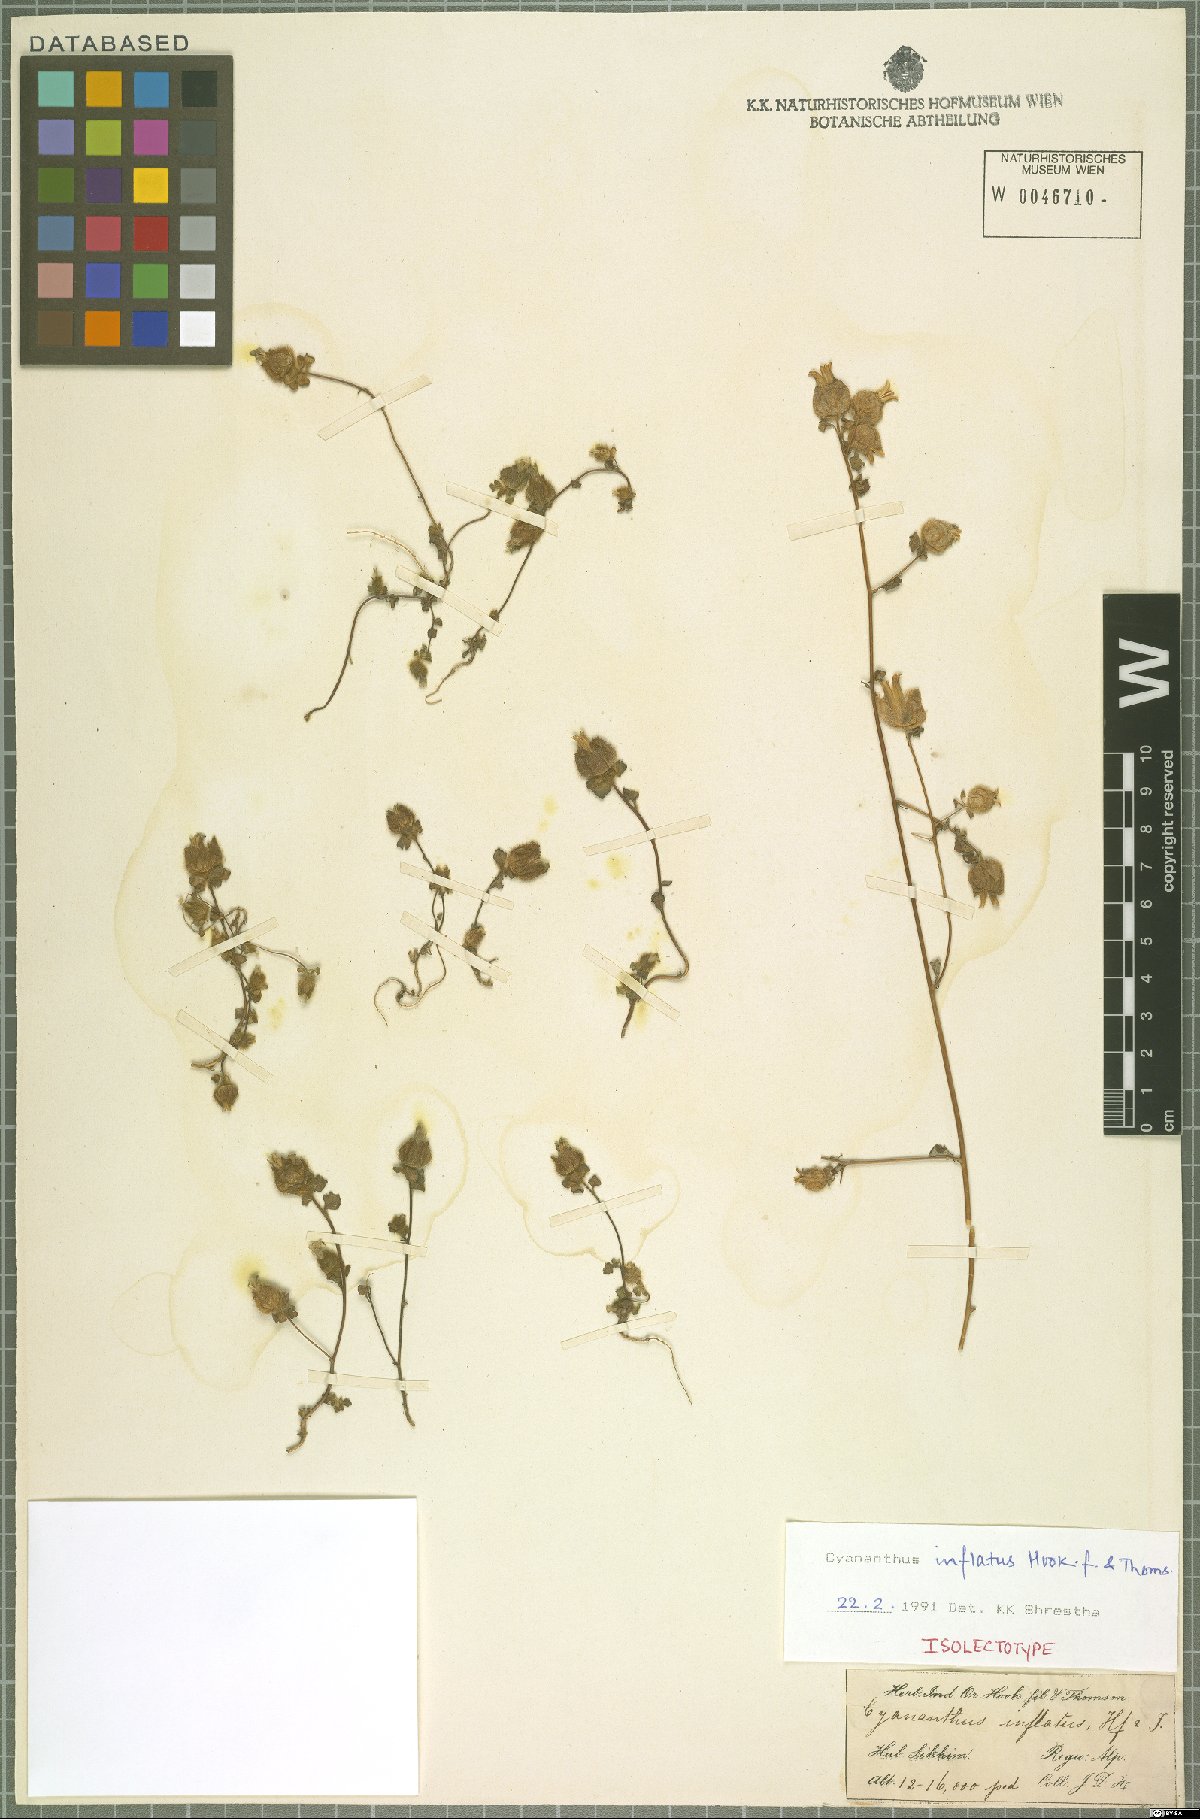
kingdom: Plantae
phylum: Tracheophyta
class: Magnoliopsida
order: Asterales
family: Campanulaceae
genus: Cyananthus
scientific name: Cyananthus inflatus
